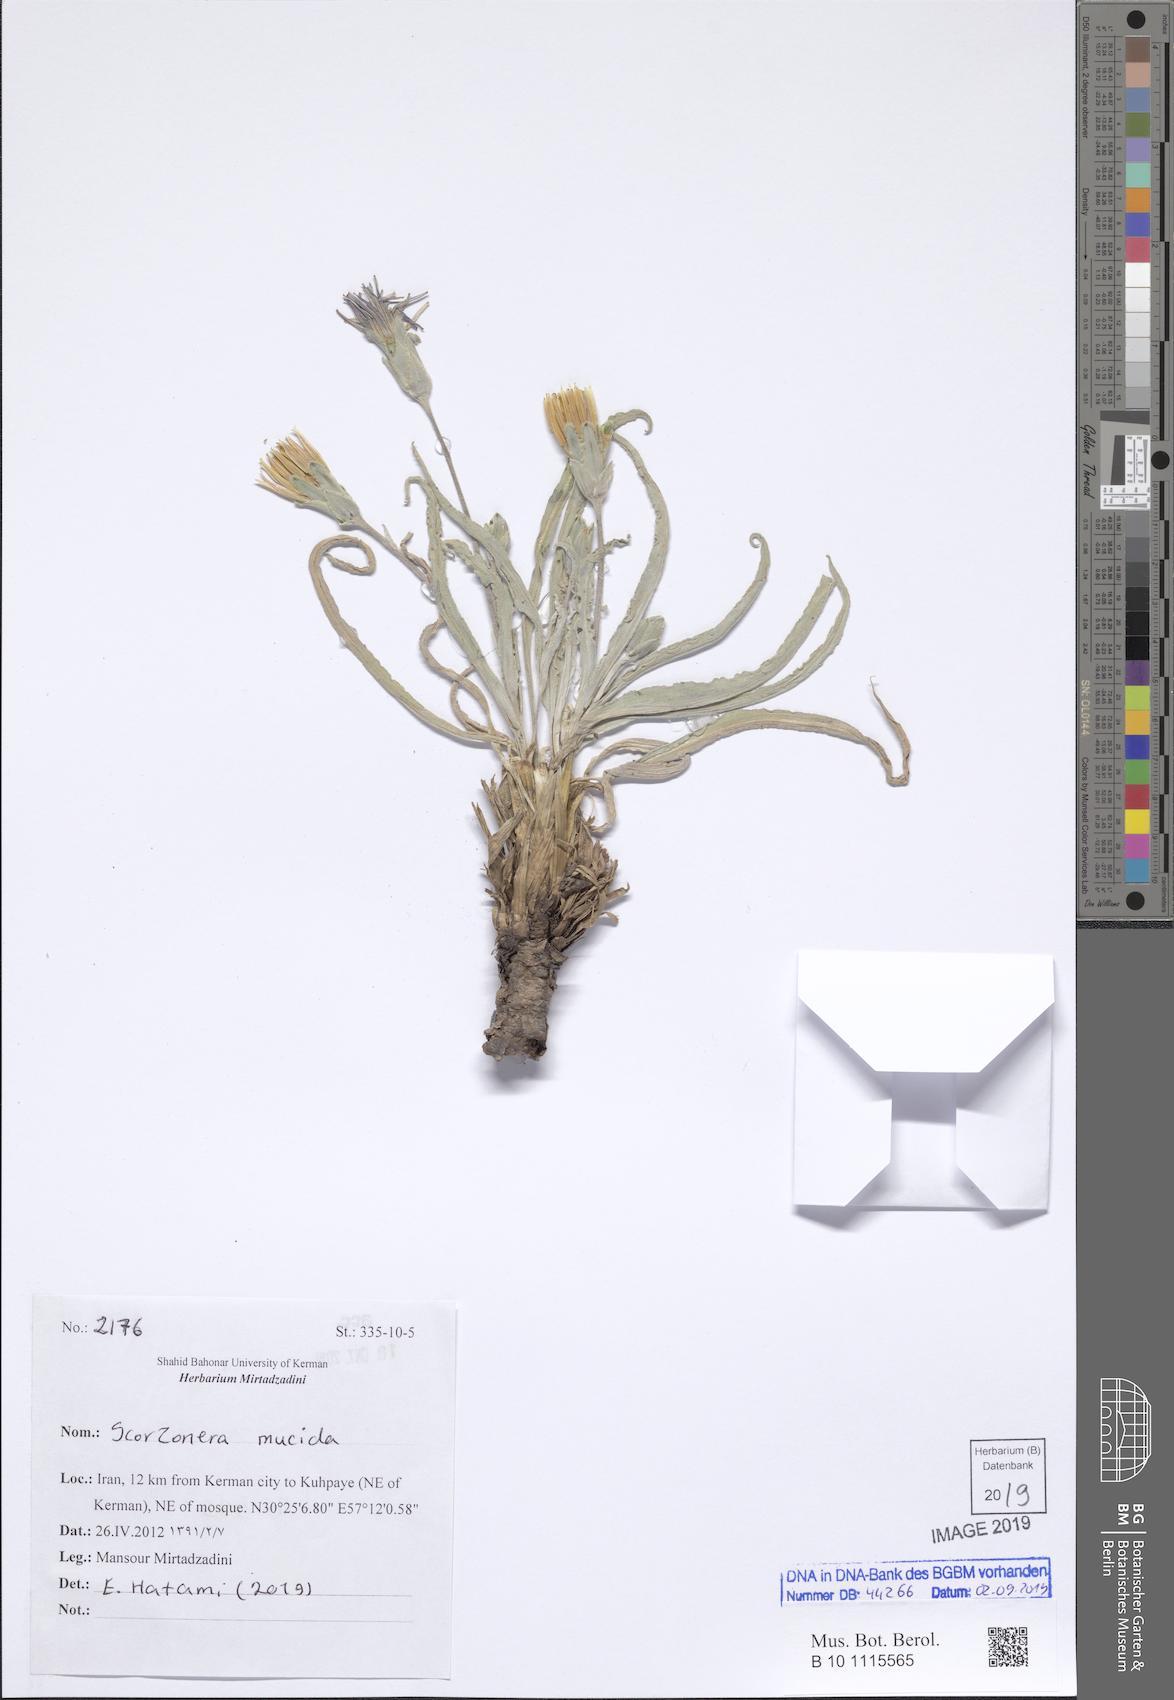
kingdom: Plantae
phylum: Tracheophyta
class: Magnoliopsida
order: Asterales
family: Asteraceae
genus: Candollea
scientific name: Candollea mucida
